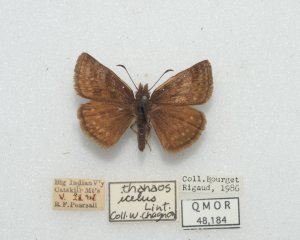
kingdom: Animalia
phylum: Arthropoda
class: Insecta
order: Lepidoptera
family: Hesperiidae
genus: Erynnis
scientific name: Erynnis icelus
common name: Dreamy Duskywing
